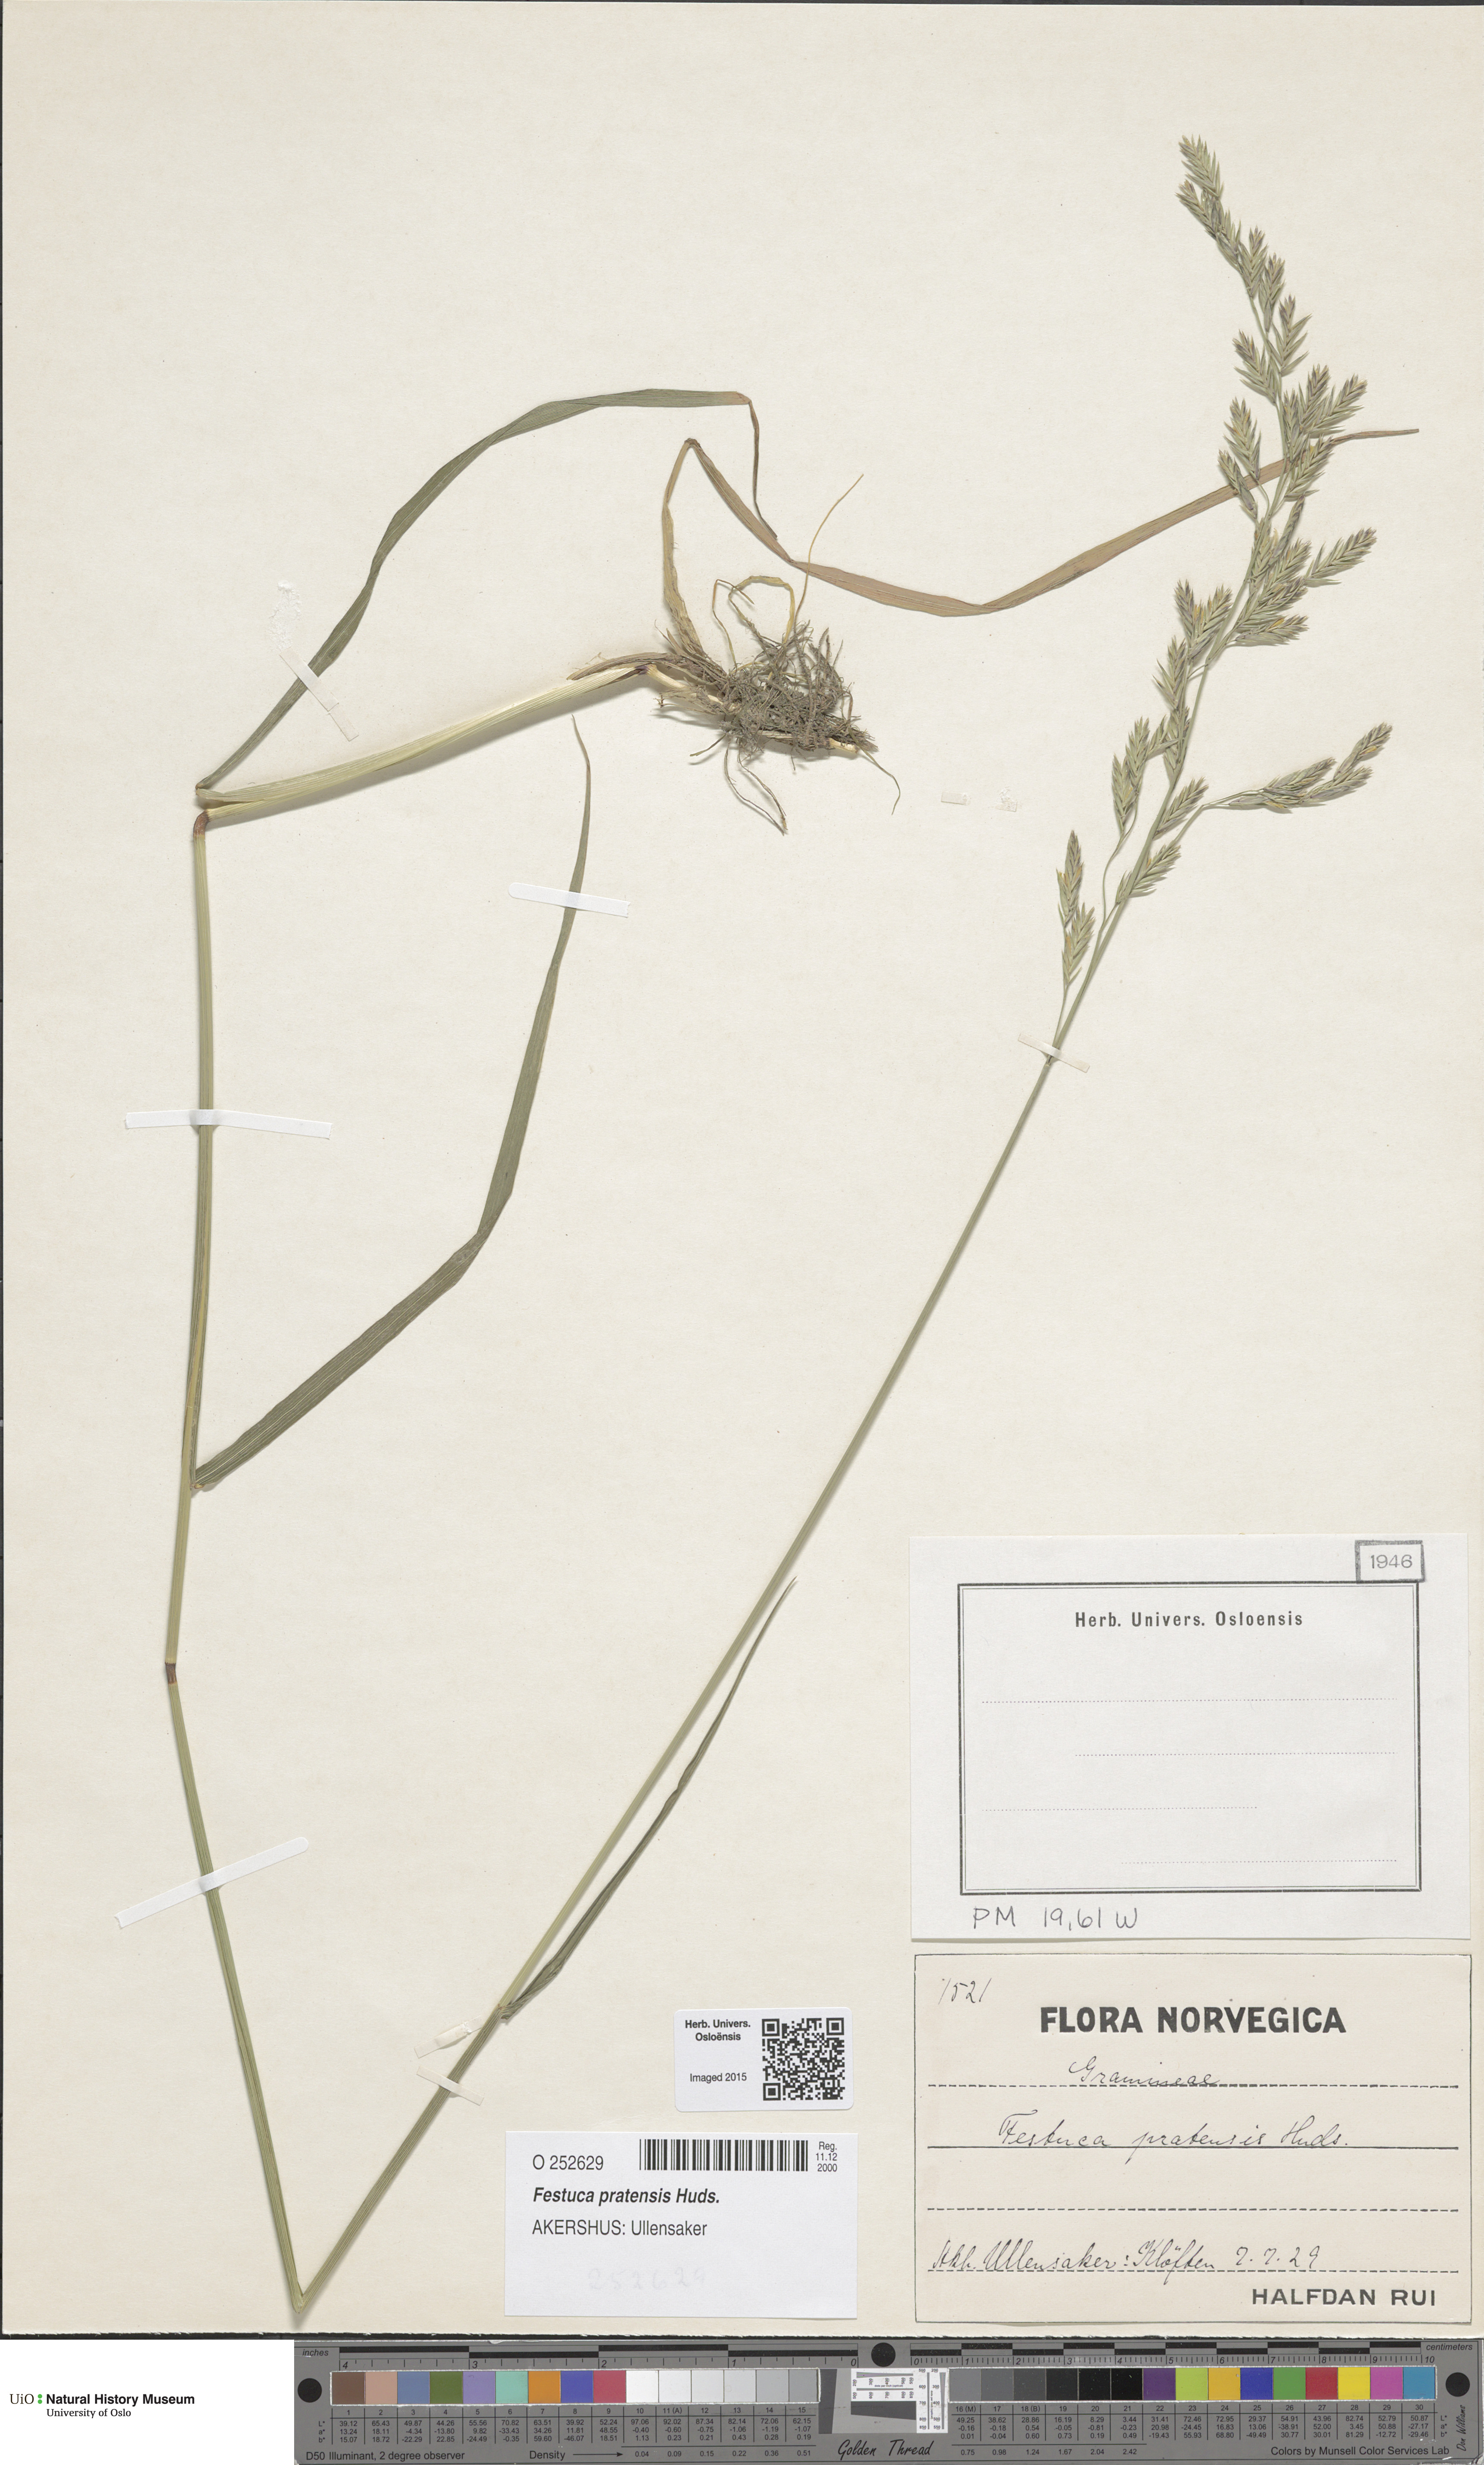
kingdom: Plantae
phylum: Tracheophyta
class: Liliopsida
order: Poales
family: Poaceae
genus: Lolium
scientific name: Lolium pratense
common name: Dover grass
